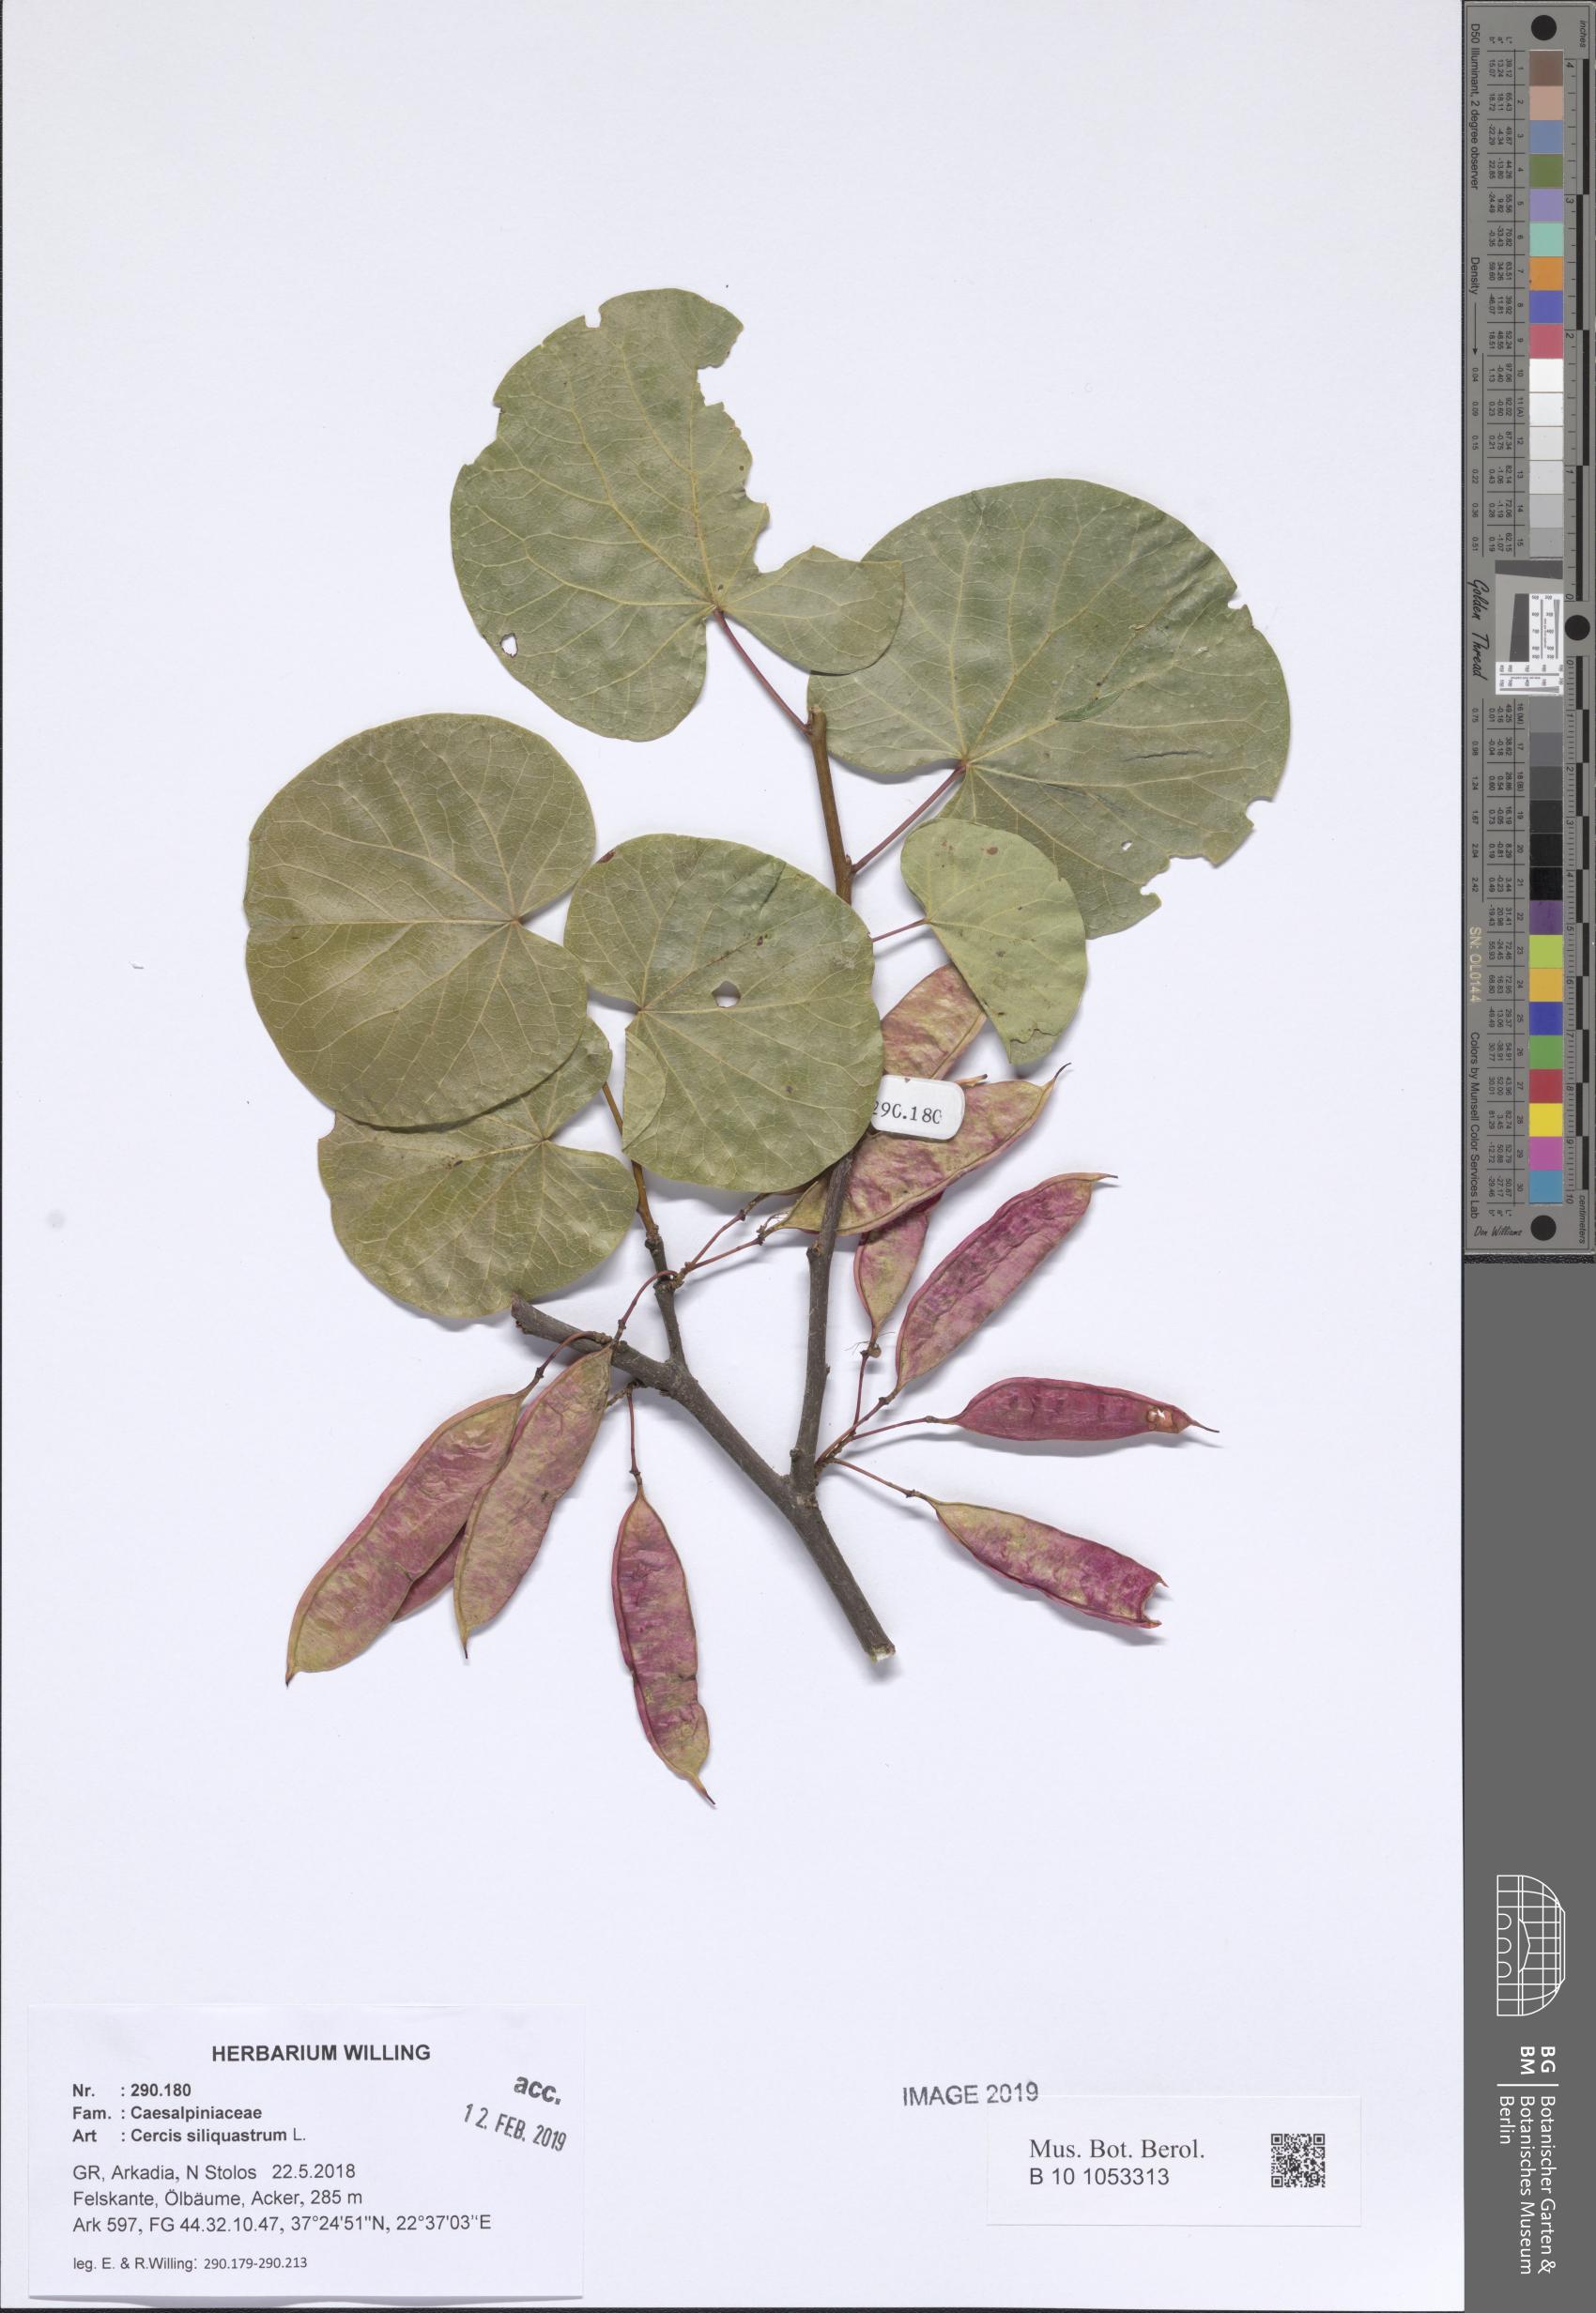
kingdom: Plantae
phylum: Tracheophyta
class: Magnoliopsida
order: Fabales
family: Fabaceae
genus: Cercis
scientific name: Cercis siliquastrum
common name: Judas tree
